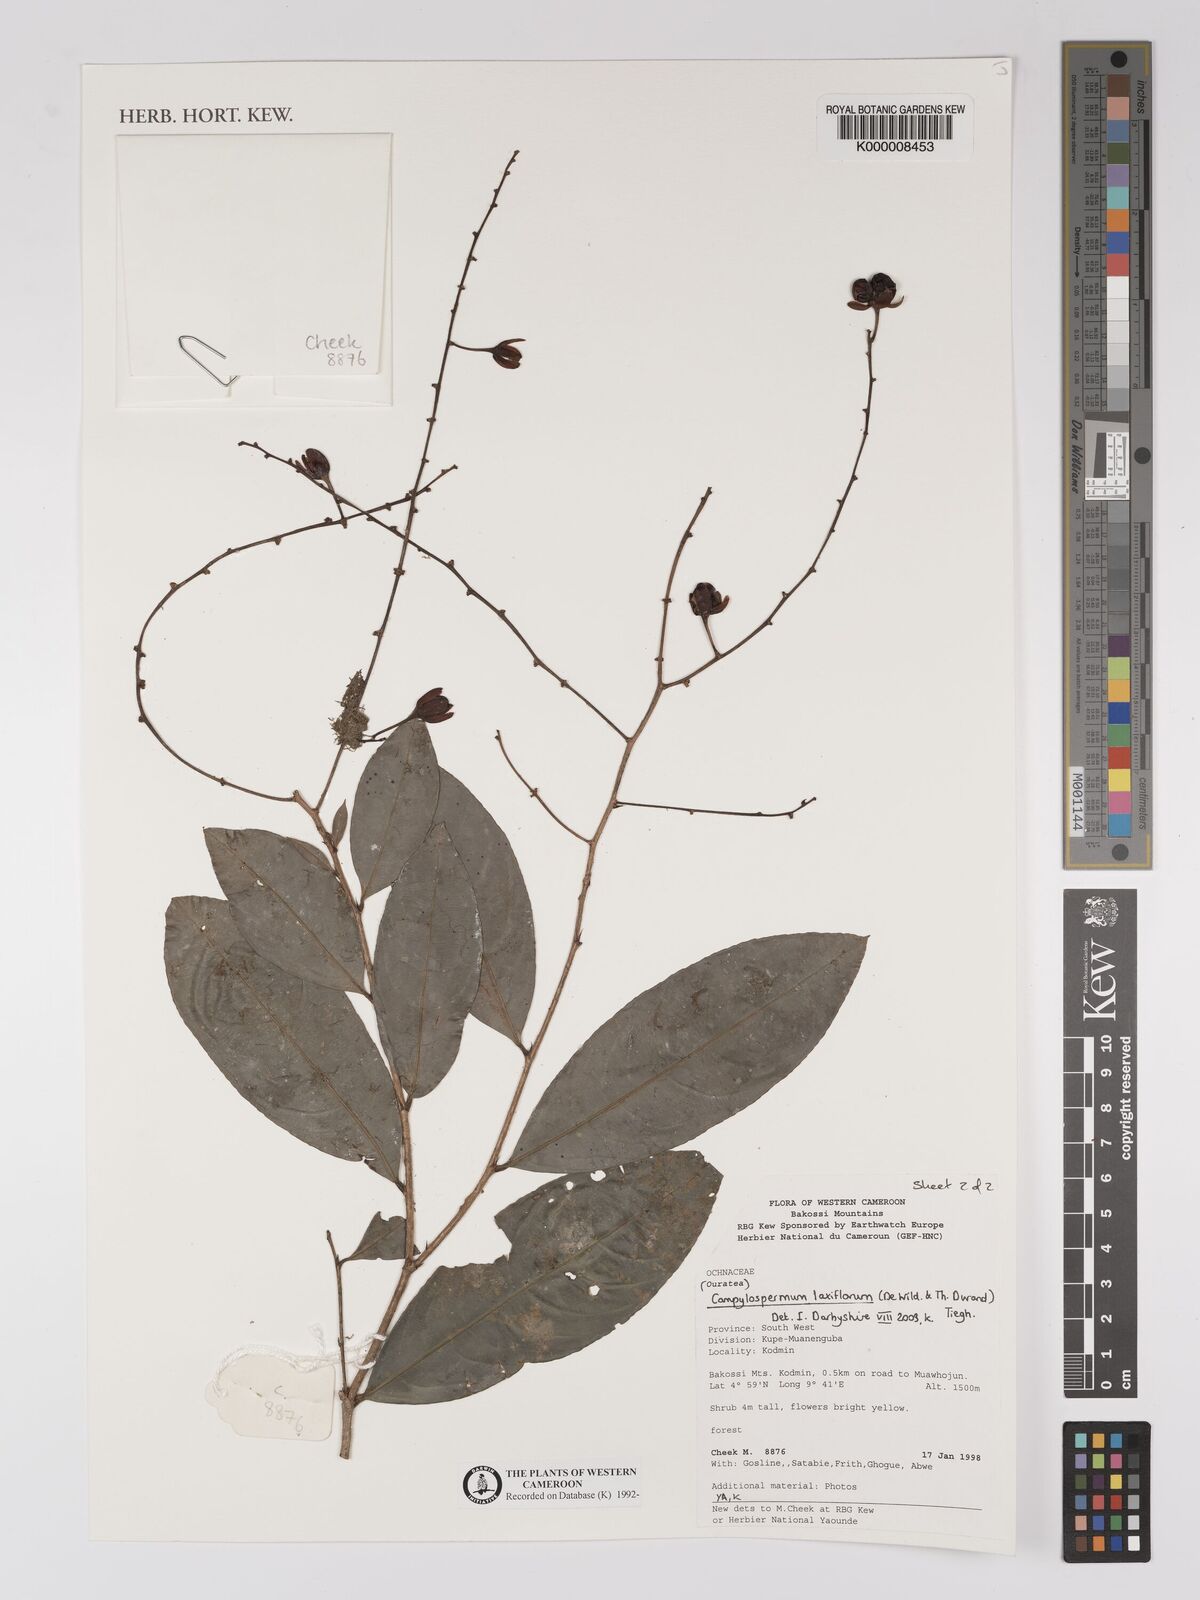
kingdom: Plantae
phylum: Tracheophyta
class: Magnoliopsida
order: Brassicales
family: Brassicaceae
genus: Cardamine
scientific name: Cardamine trichocarpa
